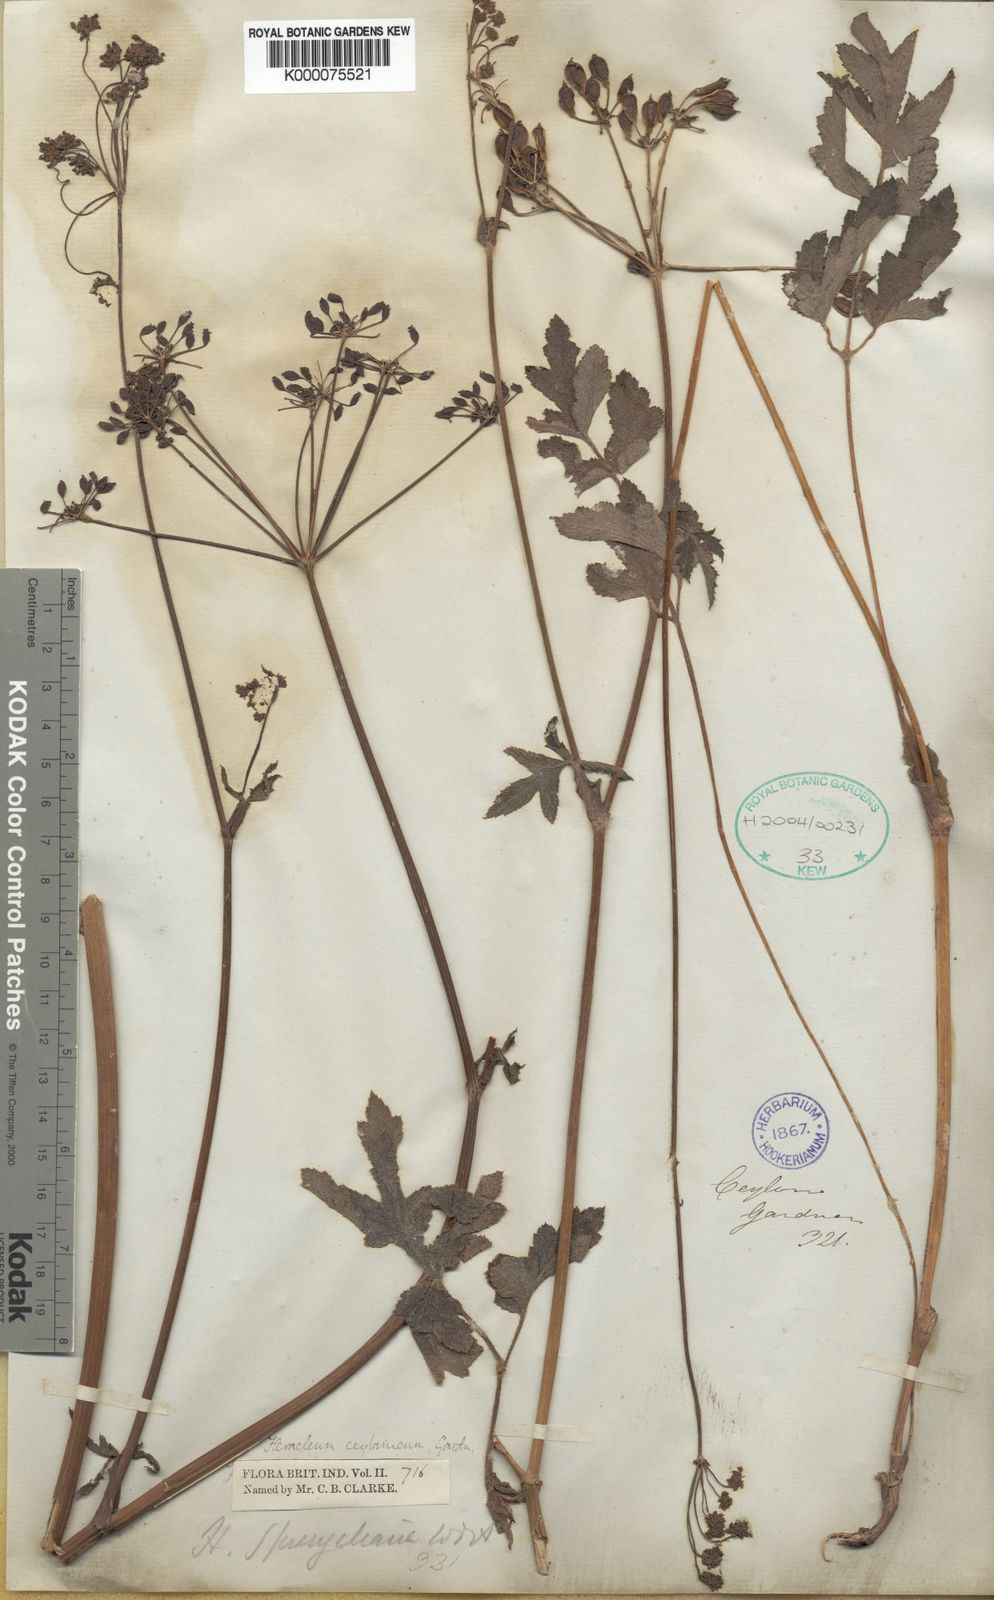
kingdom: Plantae
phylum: Tracheophyta
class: Magnoliopsida
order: Apiales
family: Apiaceae
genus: Heracleum
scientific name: Heracleum
